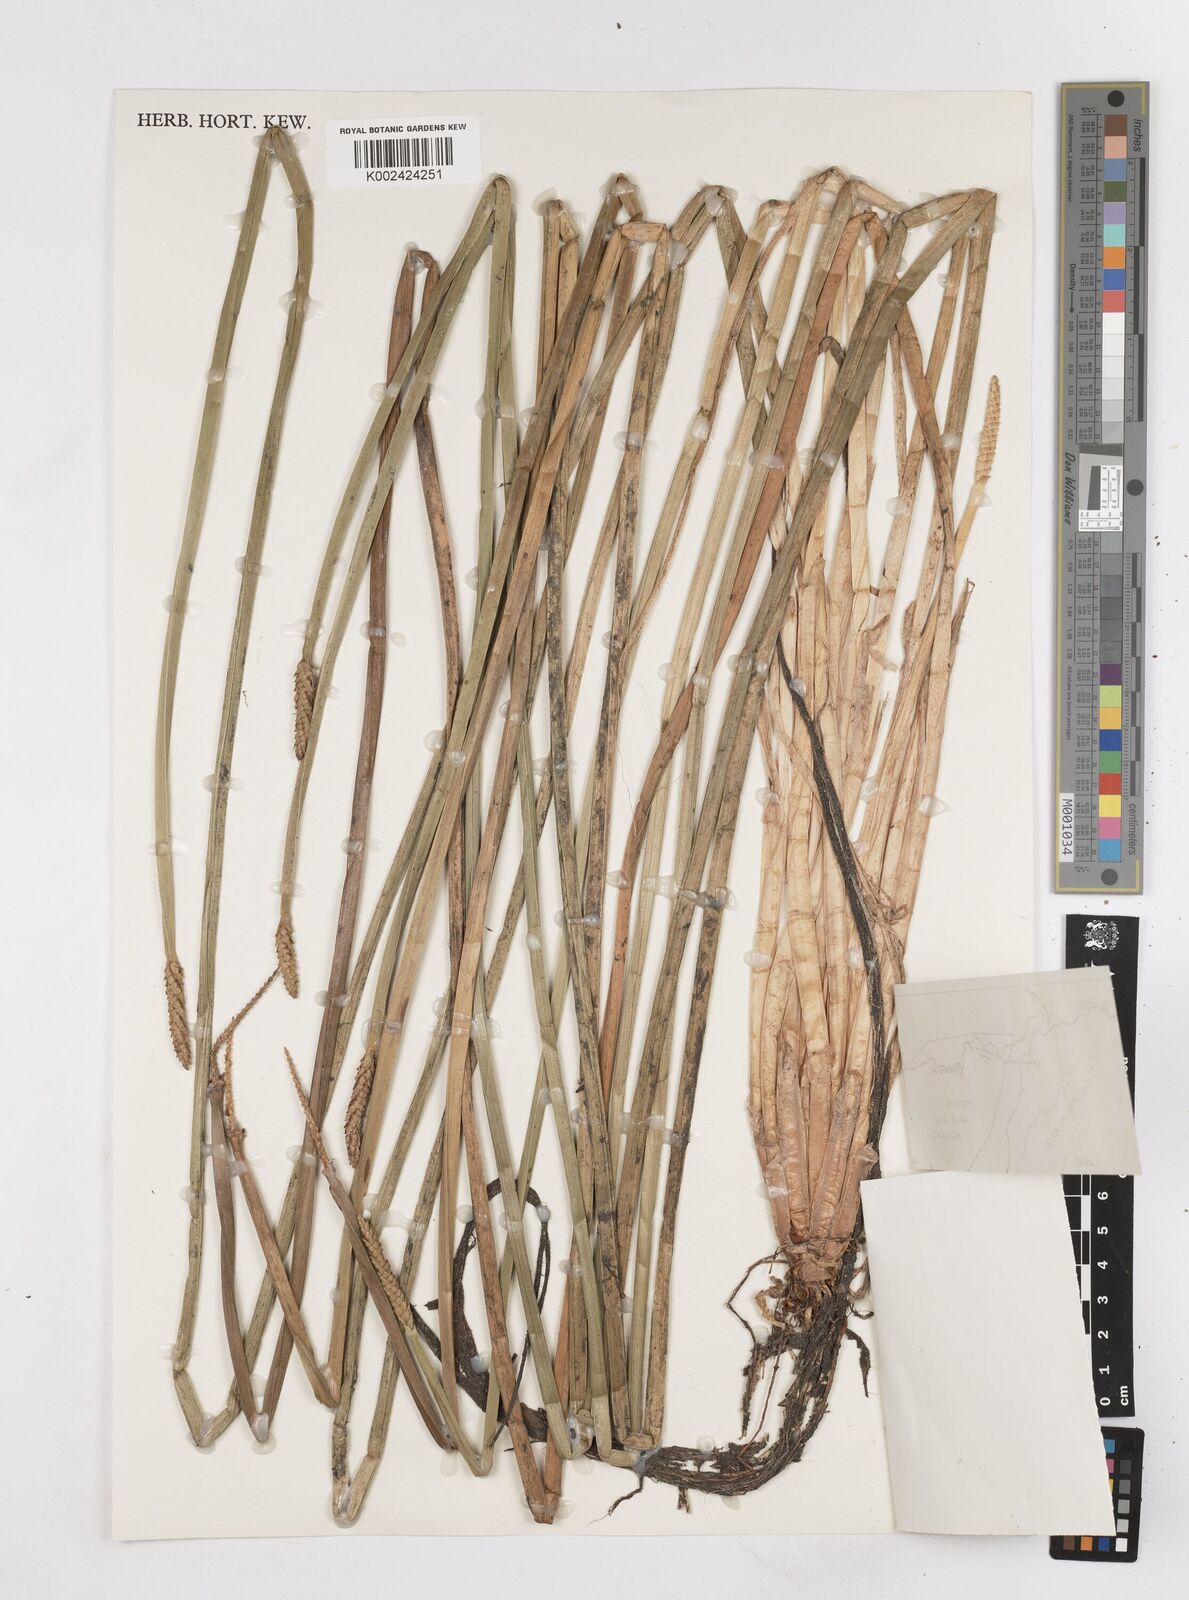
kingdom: Plantae
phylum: Tracheophyta
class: Liliopsida
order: Poales
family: Cyperaceae
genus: Eleocharis
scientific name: Eleocharis acutangula
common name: Acute spikerush
